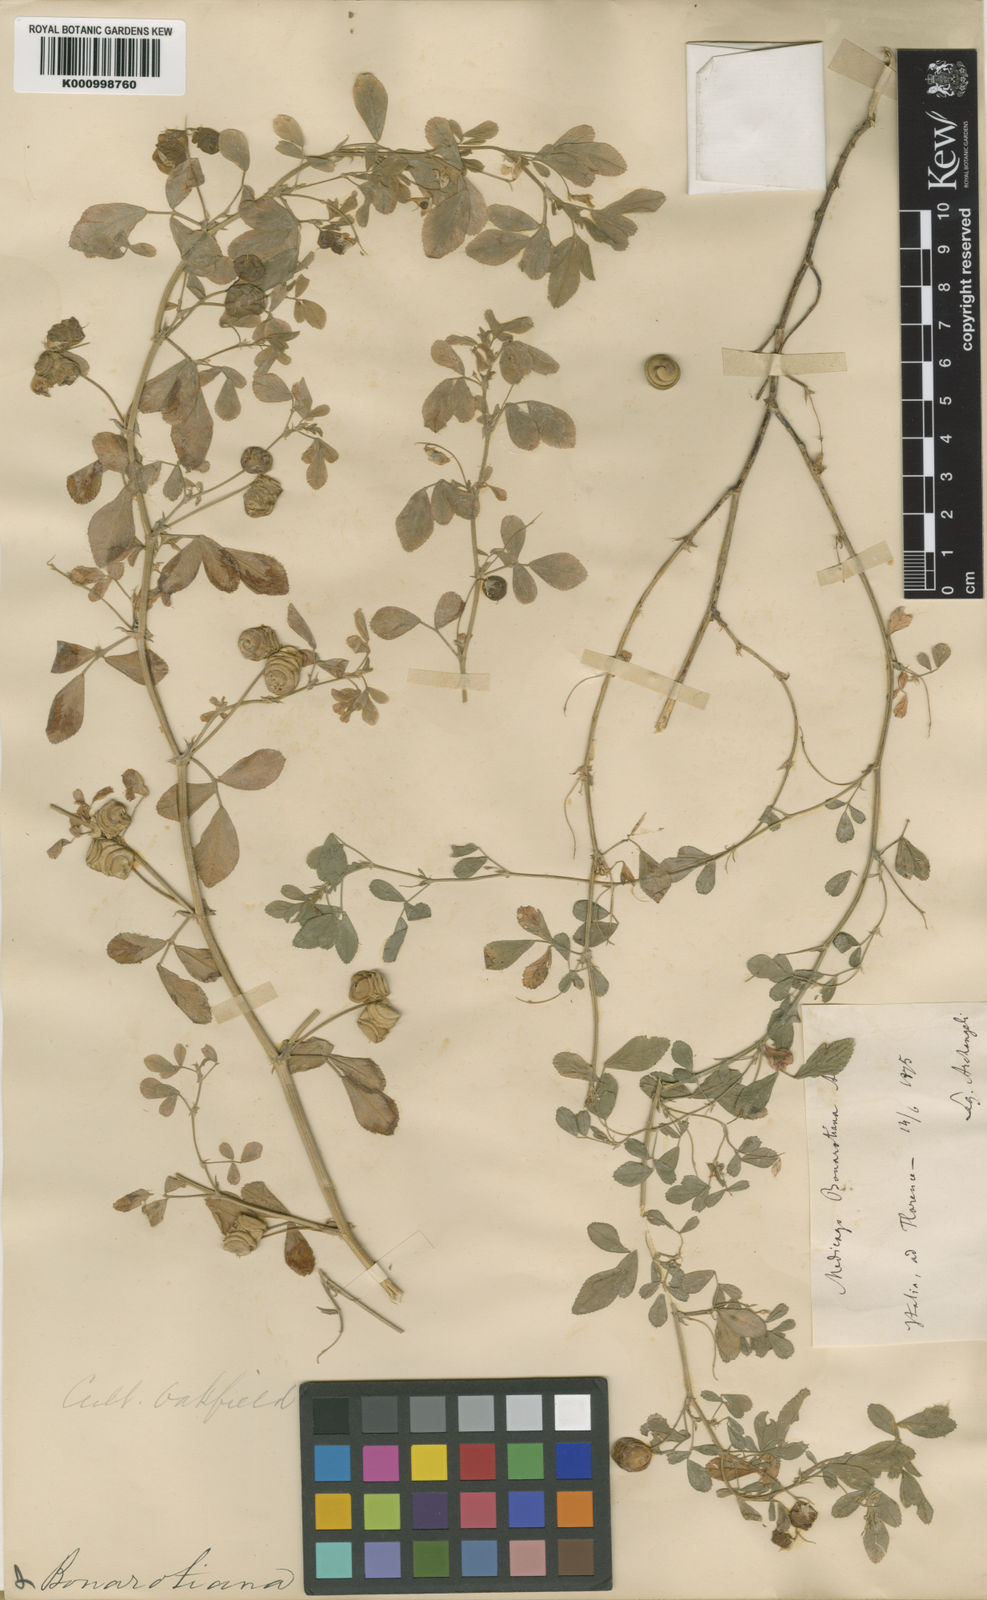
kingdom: Plantae
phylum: Tracheophyta
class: Magnoliopsida
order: Fabales
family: Fabaceae
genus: Medicago
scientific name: Medicago blancheana
